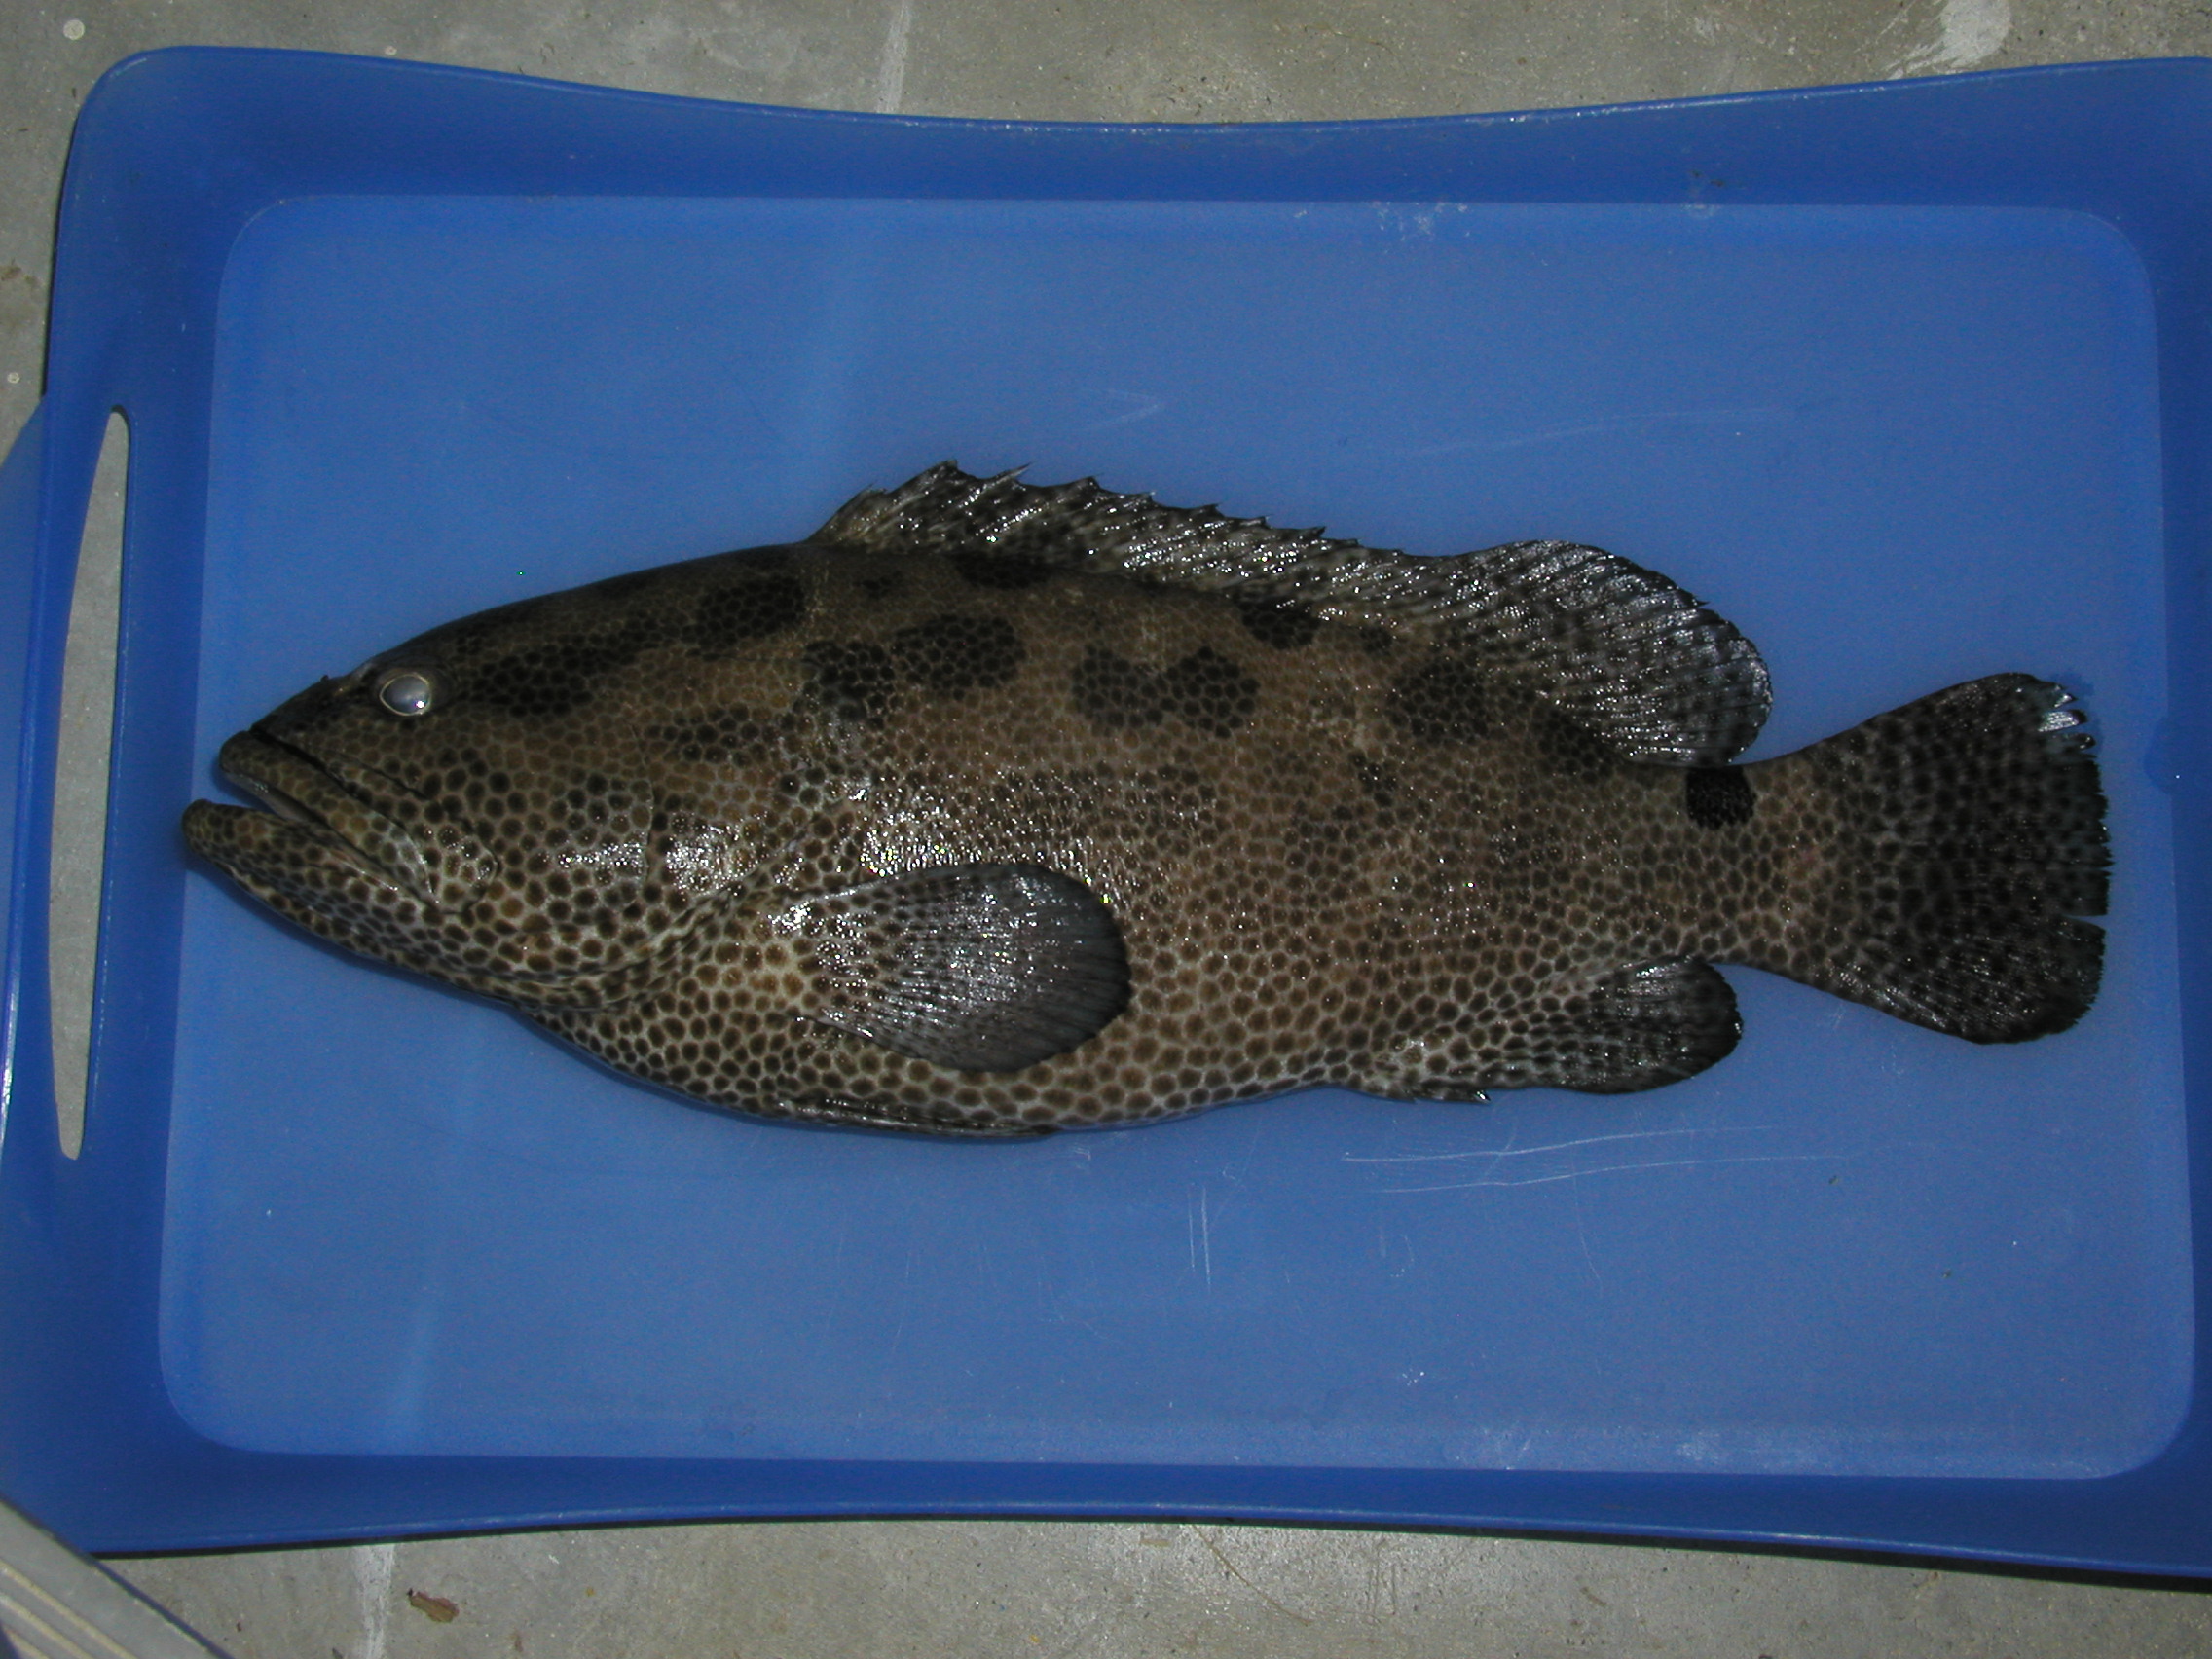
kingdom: Animalia
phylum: Chordata
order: Perciformes
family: Serranidae
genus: Epinephelus
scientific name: Epinephelus polyphekadion
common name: Camouflage grouper
